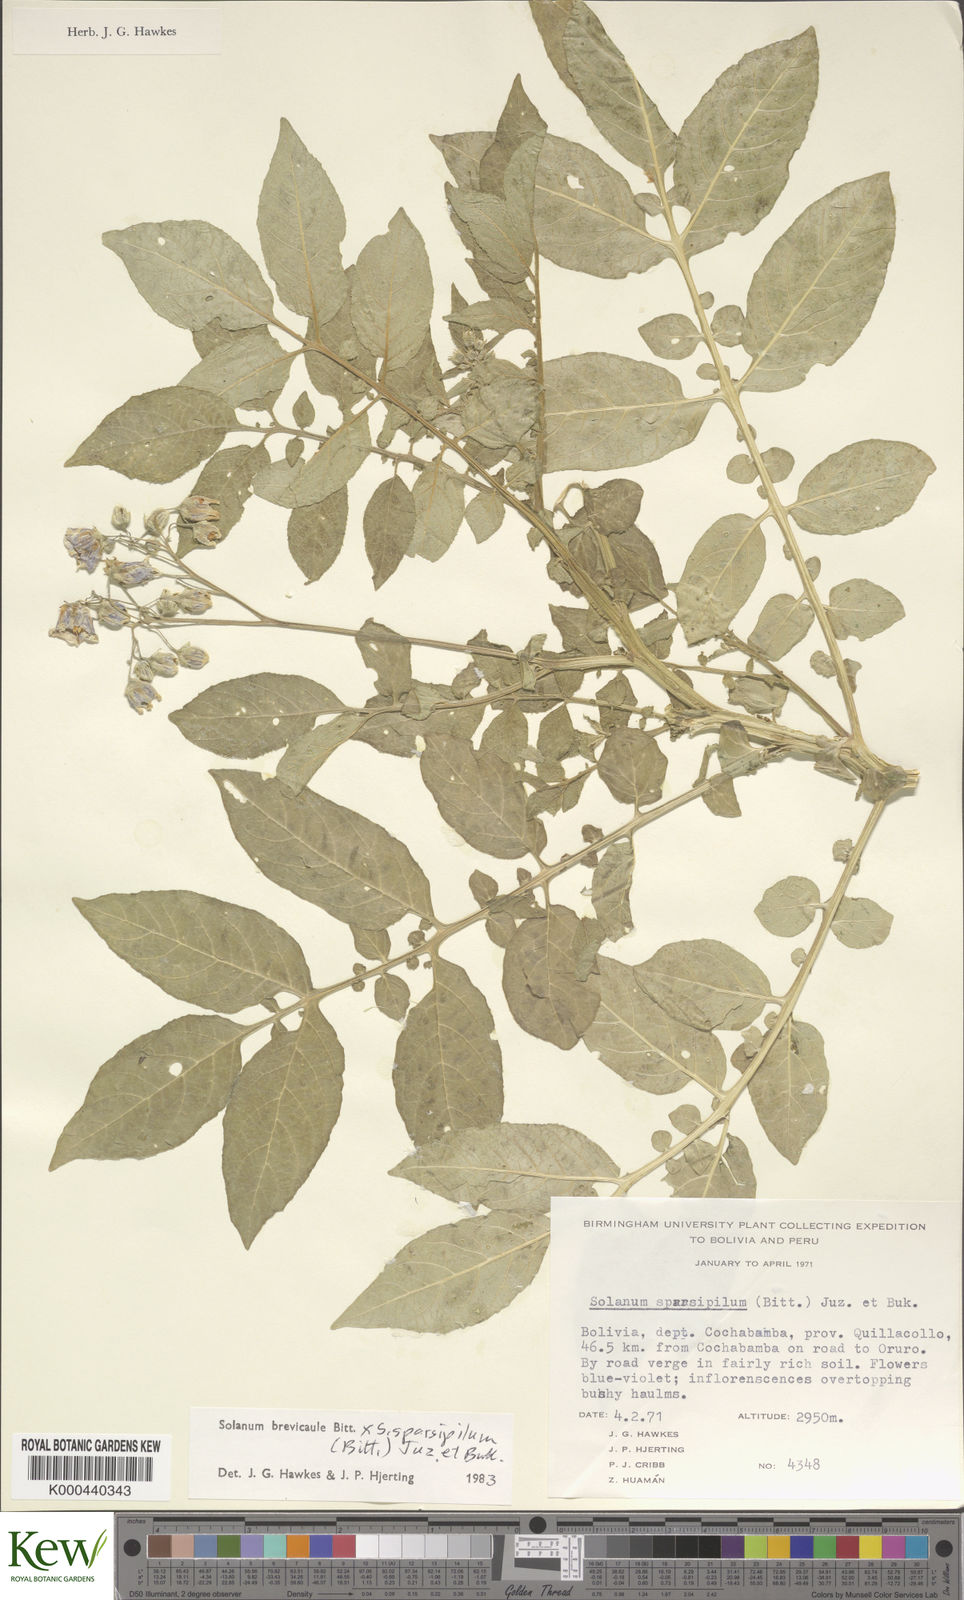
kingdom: Plantae
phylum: Tracheophyta
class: Magnoliopsida
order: Solanales
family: Solanaceae
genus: Solanum
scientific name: Solanum brevicaule
